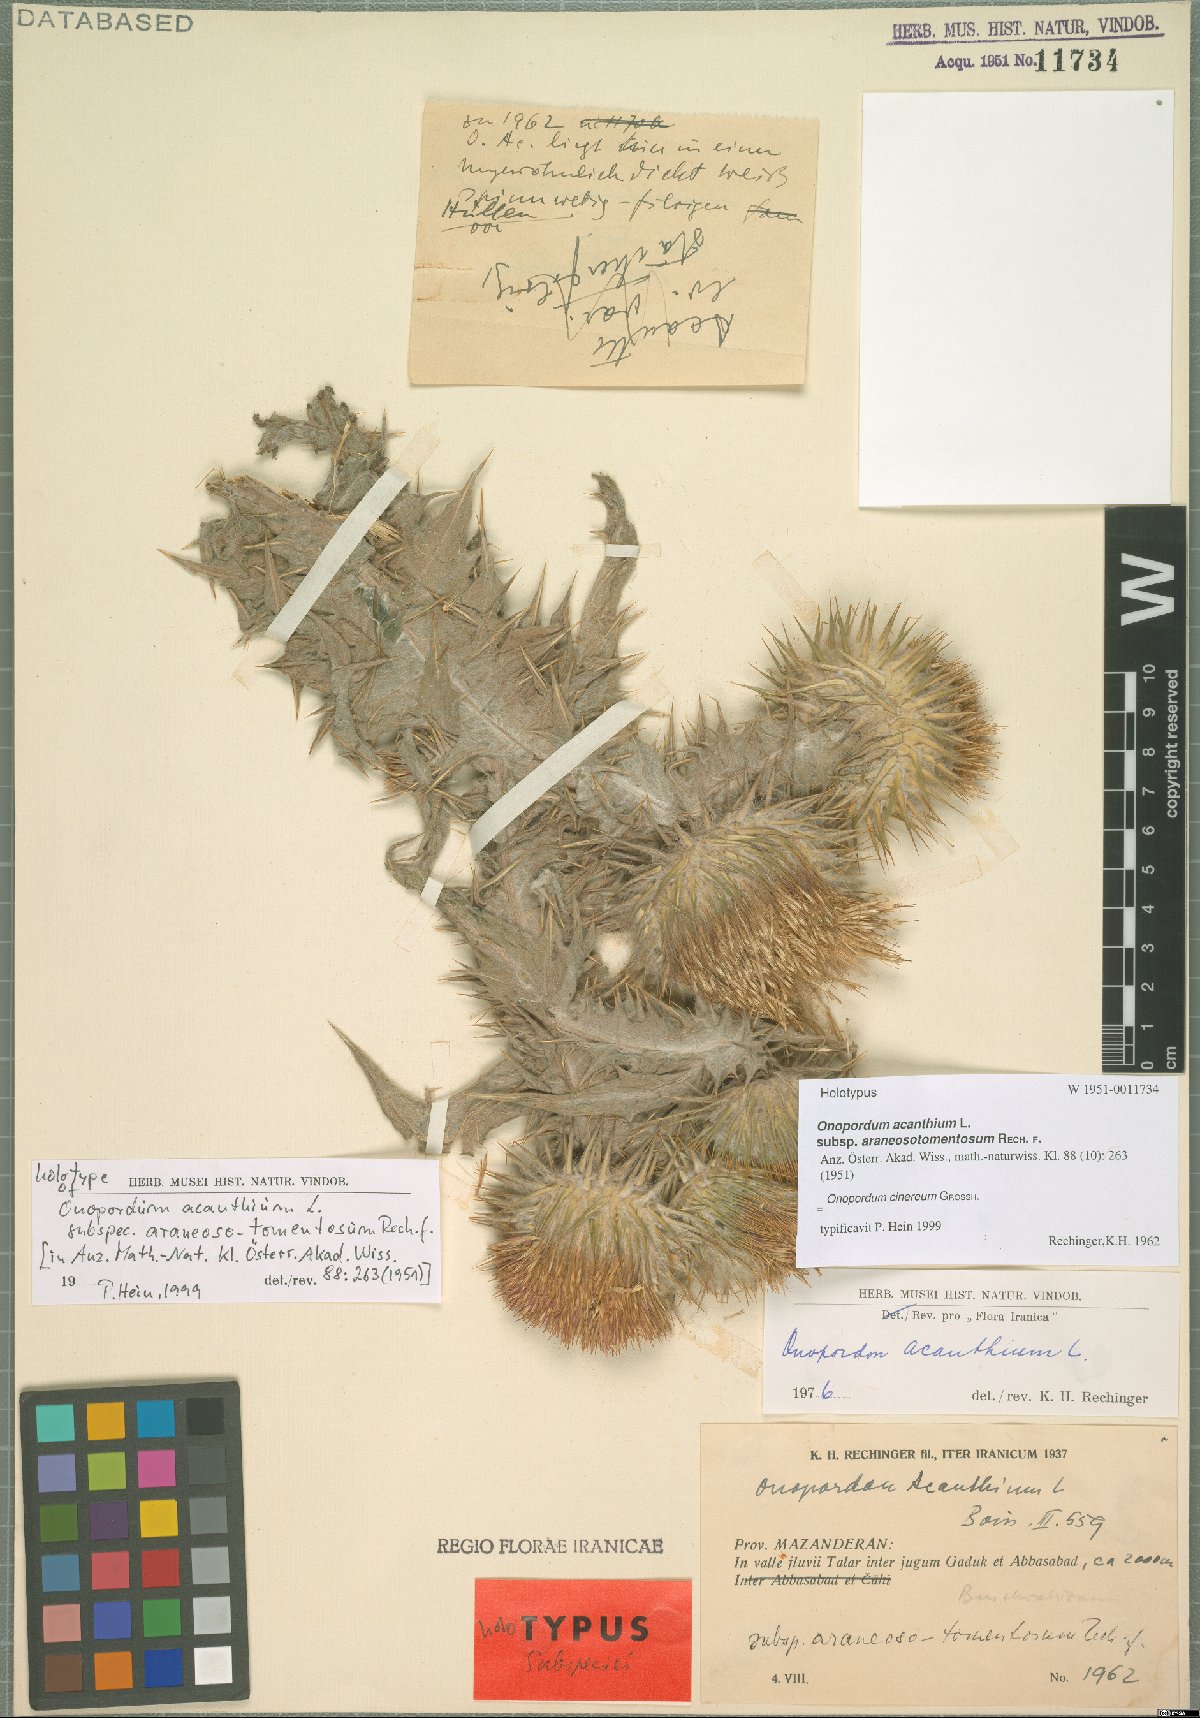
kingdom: Plantae
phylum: Tracheophyta
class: Magnoliopsida
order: Asterales
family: Asteraceae
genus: Onopordum
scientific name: Onopordum cinereum
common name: Ash-coloured scotch thistle
